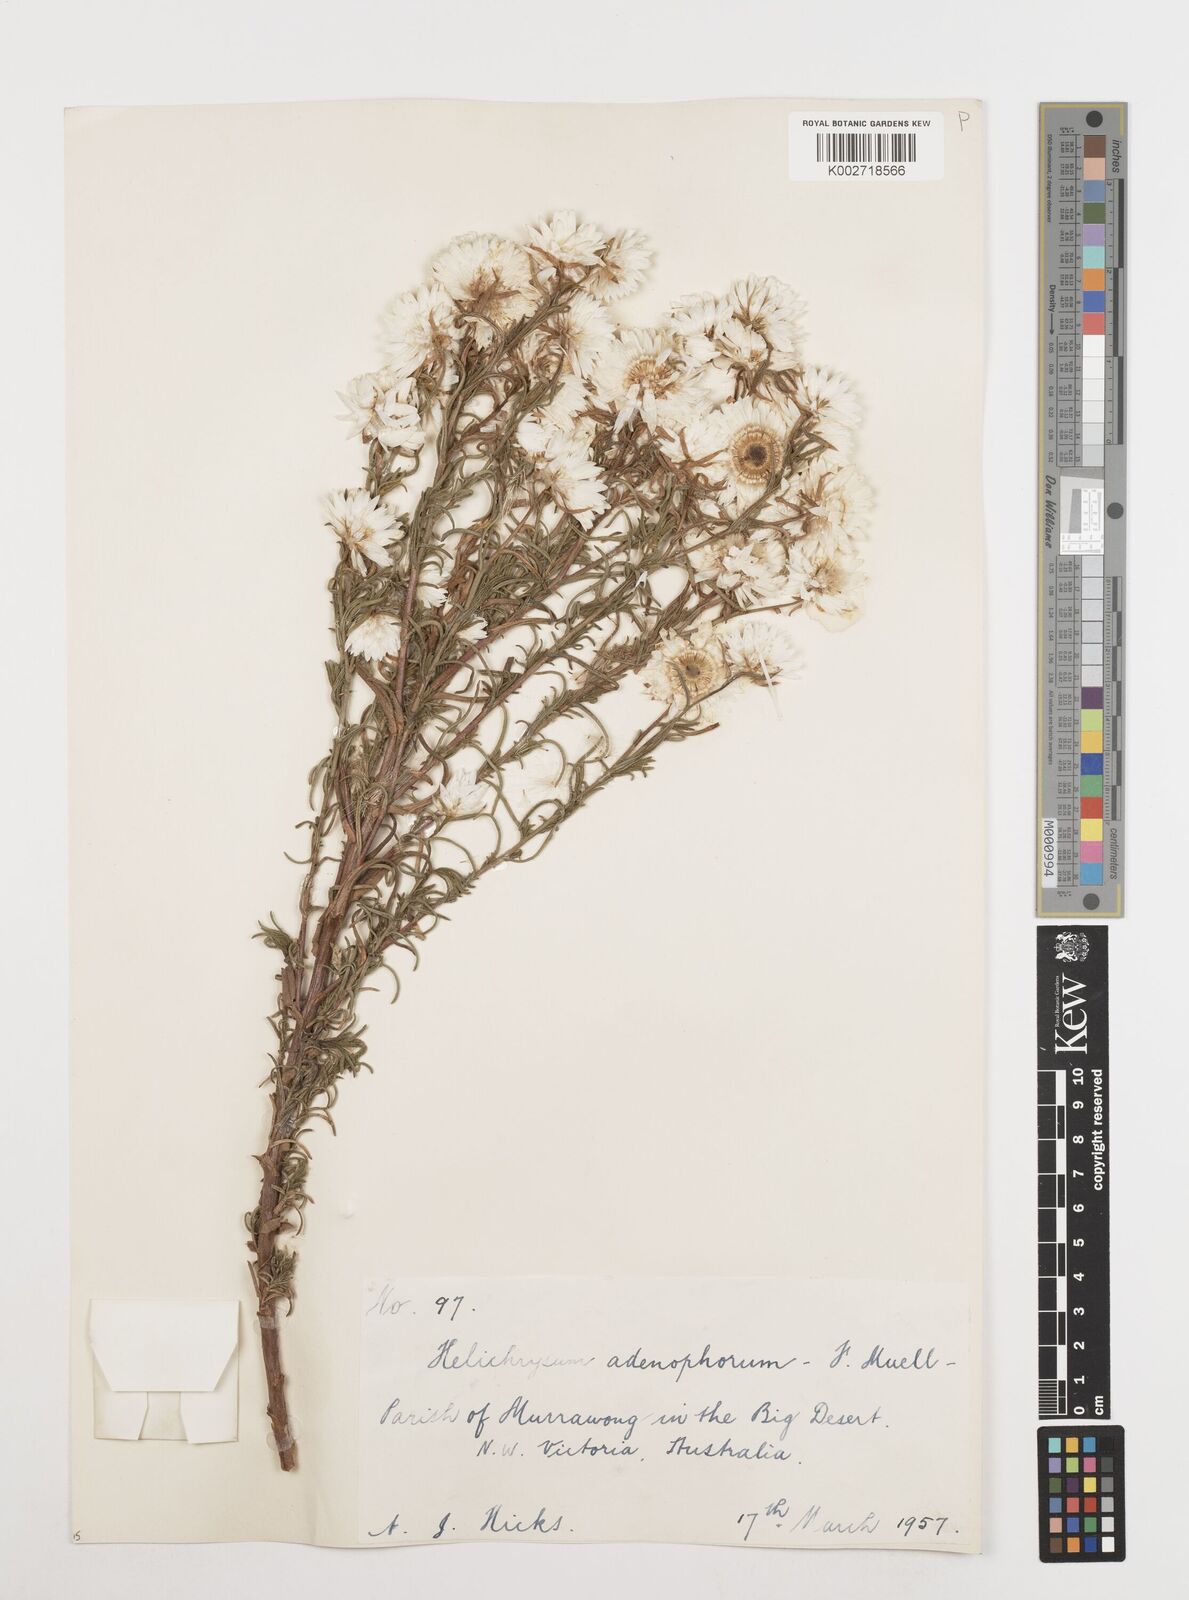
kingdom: Plantae
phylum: Tracheophyta
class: Magnoliopsida
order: Asterales
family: Asteraceae
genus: Coronidium
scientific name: Coronidium adenophorum
